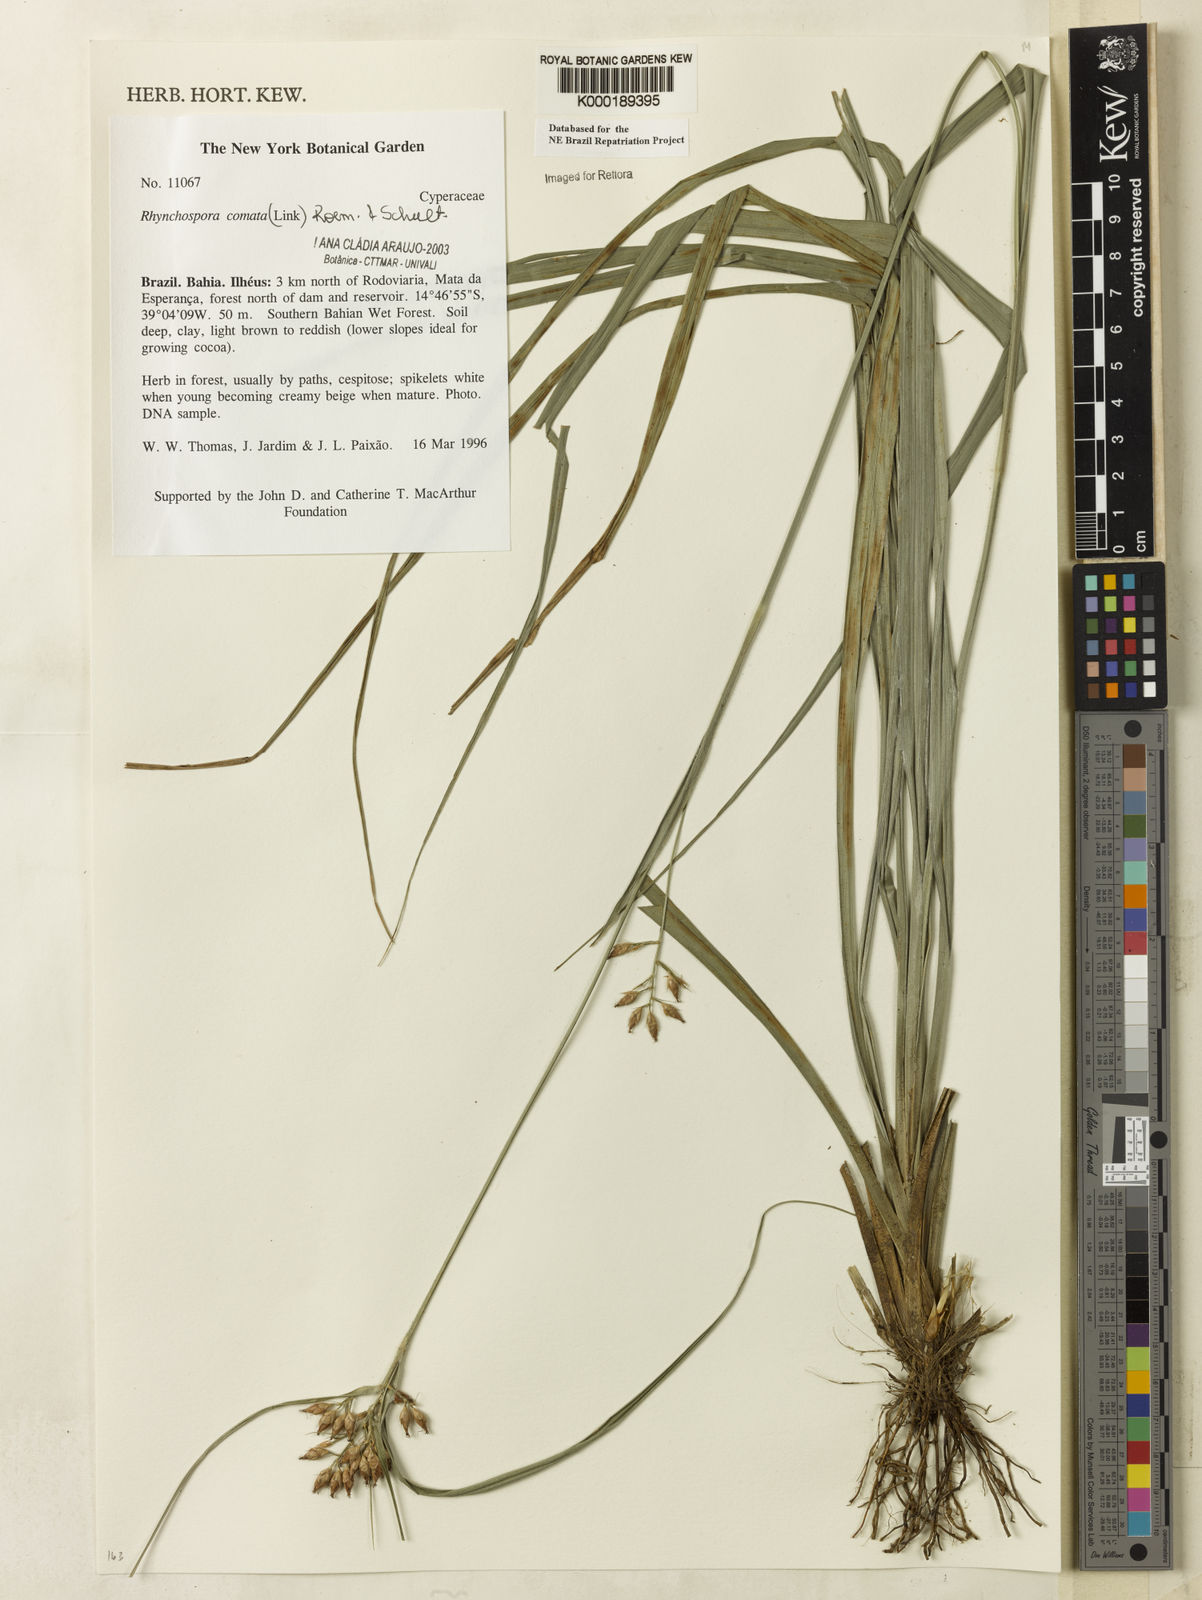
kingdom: Plantae
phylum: Tracheophyta
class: Liliopsida
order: Poales
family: Cyperaceae
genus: Rhynchospora
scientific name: Rhynchospora comata
